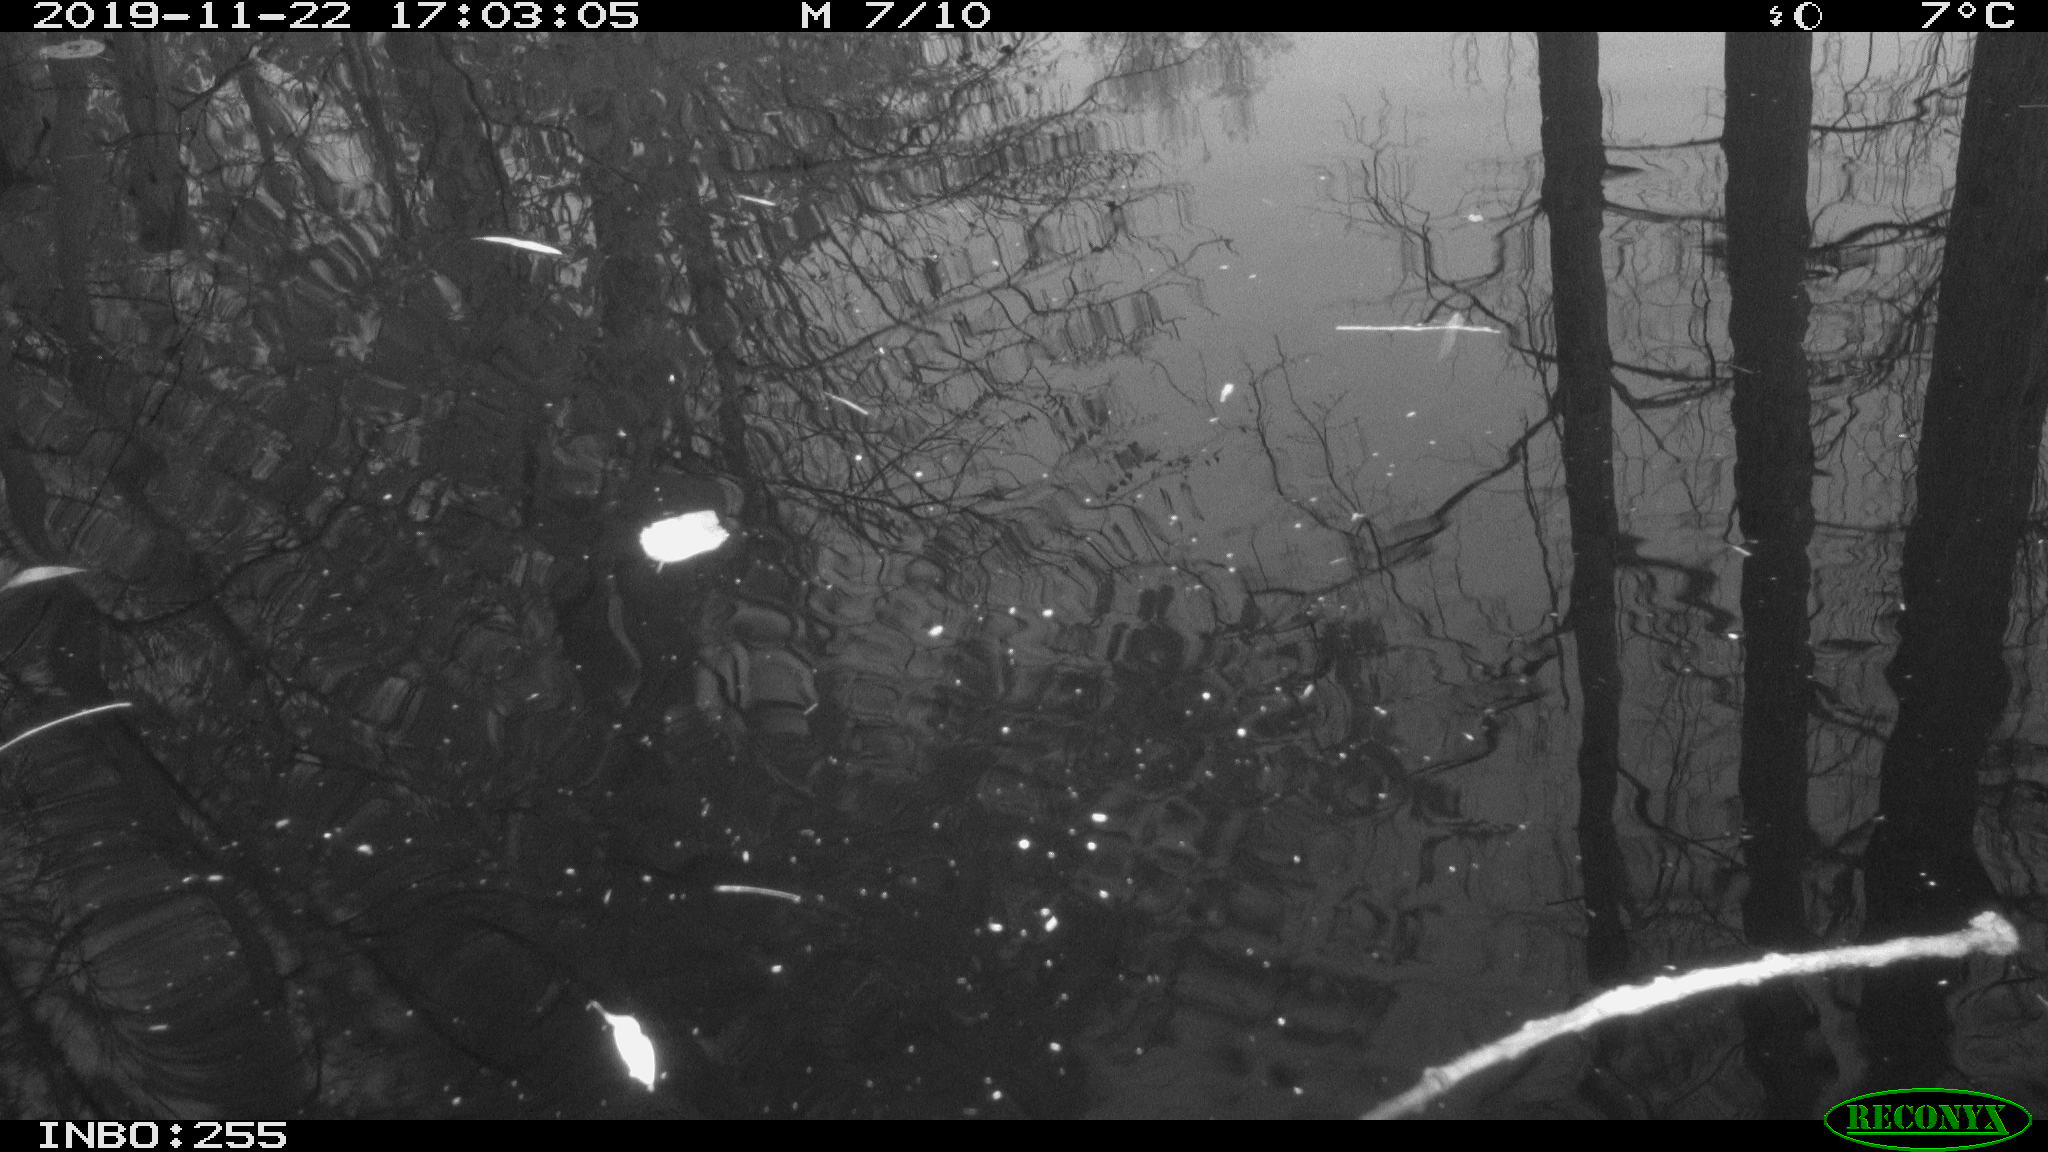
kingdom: Animalia
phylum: Chordata
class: Aves
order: Gruiformes
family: Rallidae
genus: Gallinula
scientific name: Gallinula chloropus
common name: Common moorhen
